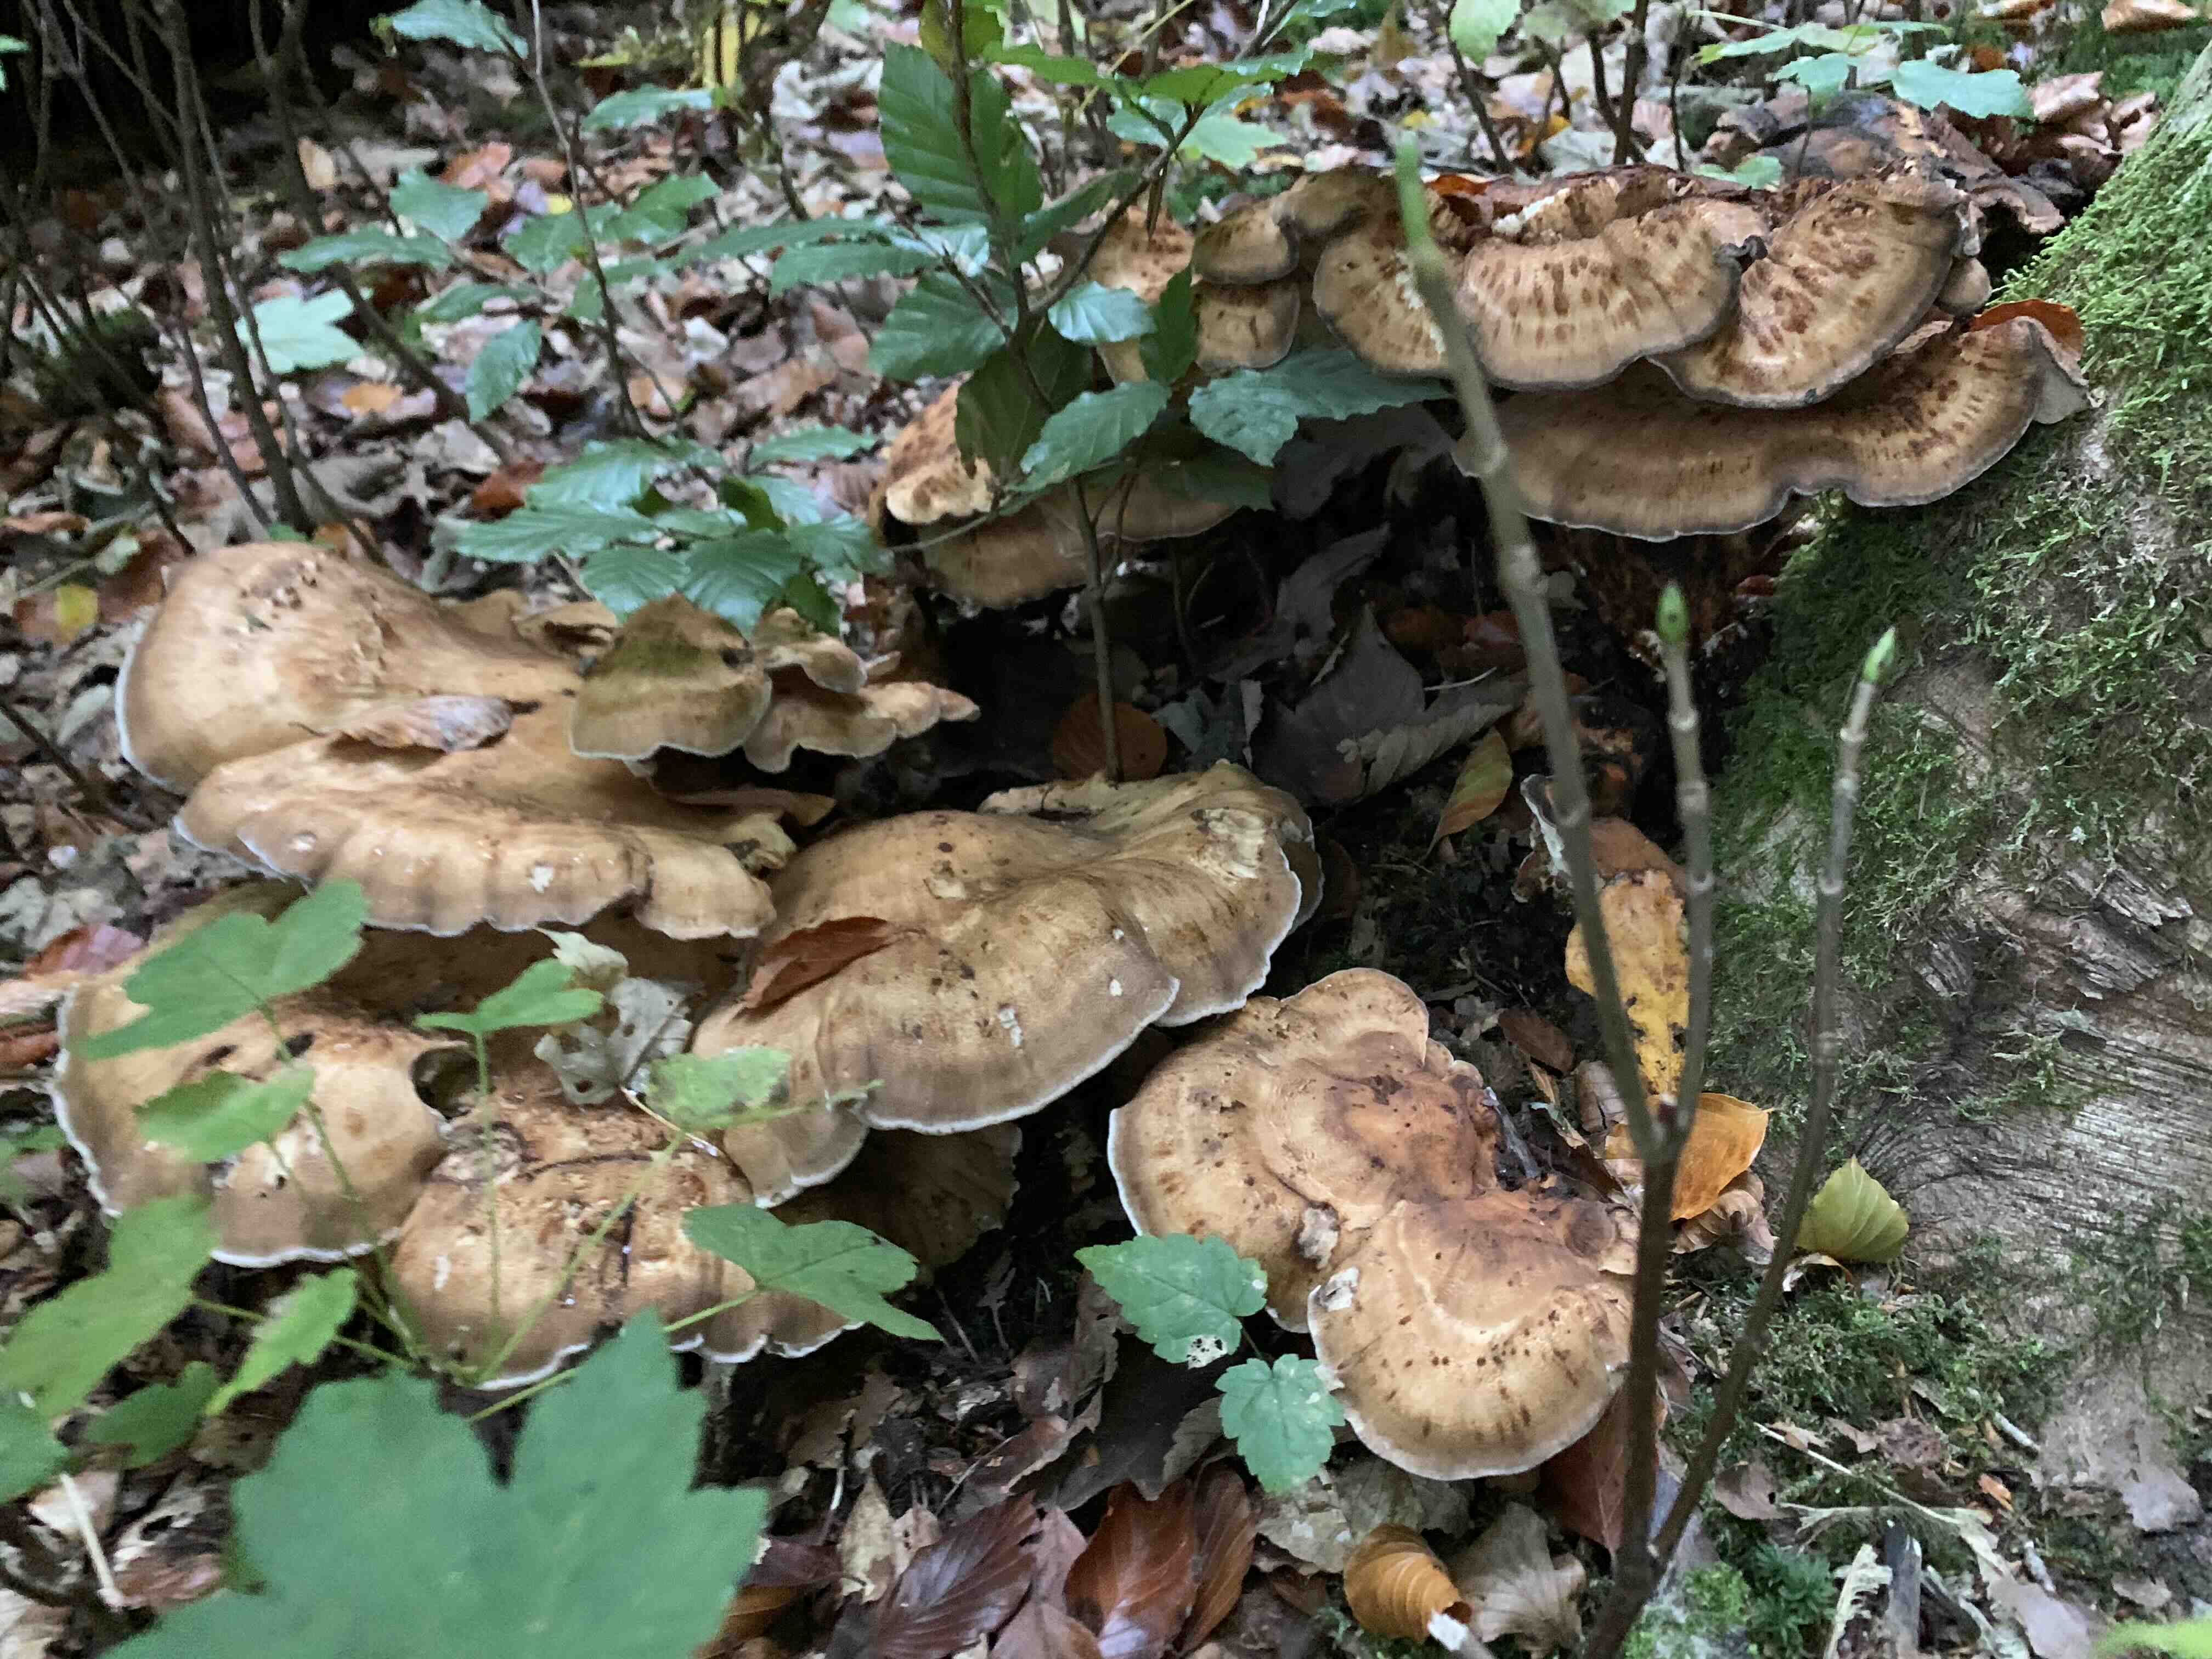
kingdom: Fungi
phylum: Basidiomycota
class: Agaricomycetes
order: Polyporales
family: Meripilaceae
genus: Meripilus
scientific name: Meripilus giganteus
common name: kæmpeporesvamp
